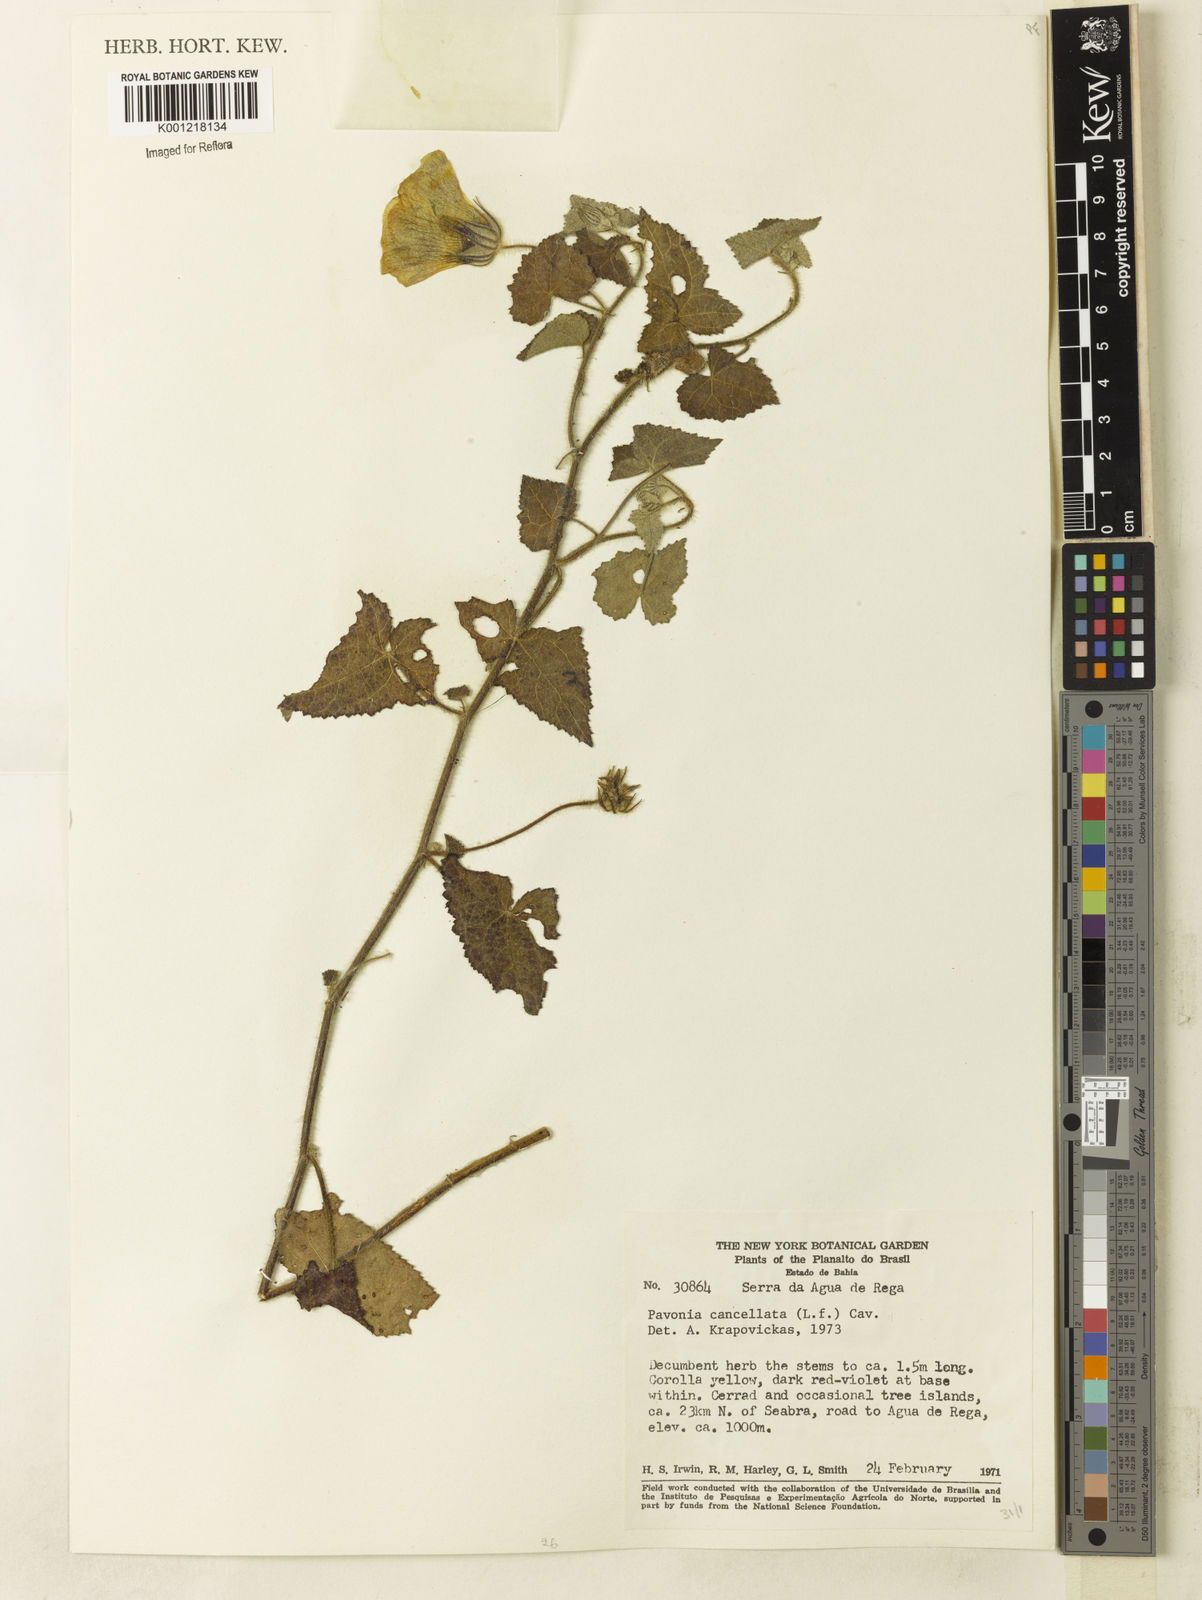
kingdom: Plantae
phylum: Tracheophyta
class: Magnoliopsida
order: Malvales
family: Malvaceae
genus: Pavonia
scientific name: Pavonia cancellata
